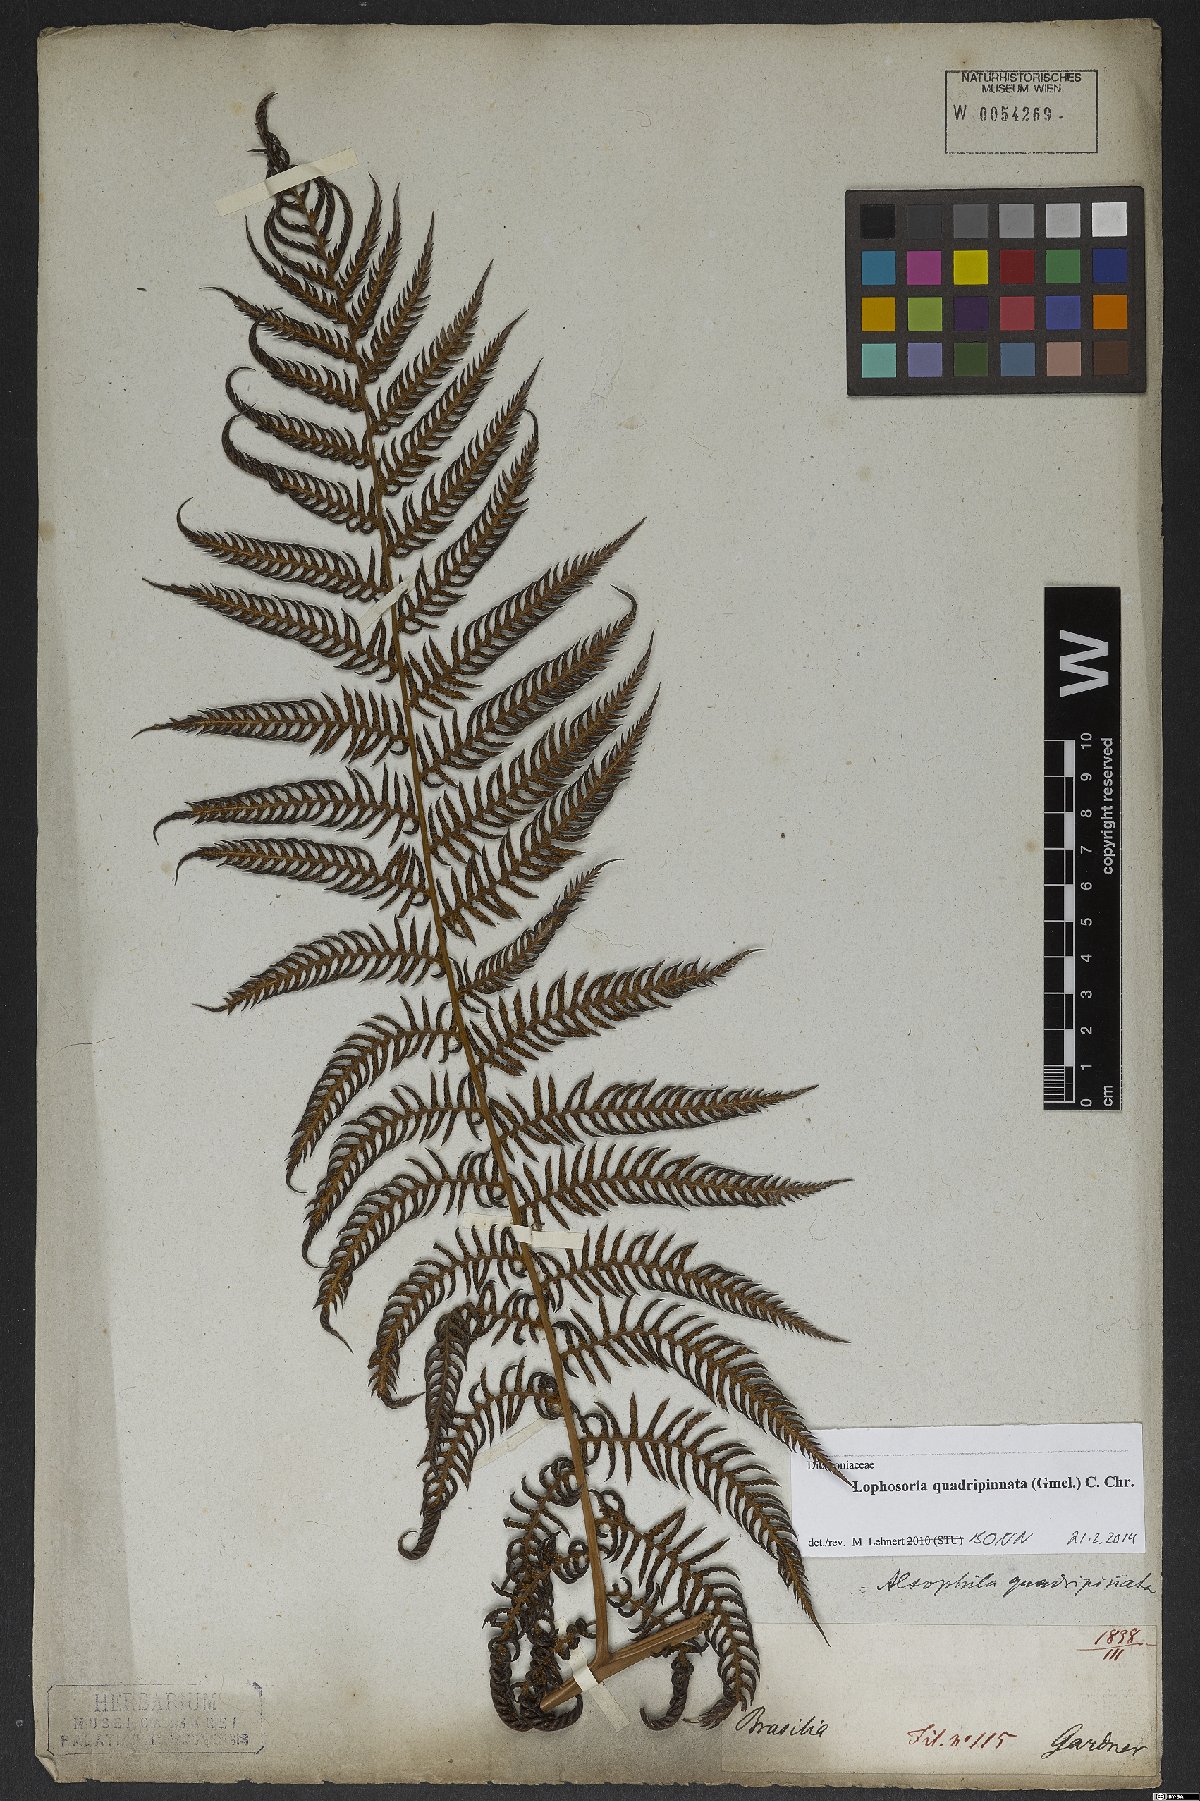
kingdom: Plantae
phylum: Tracheophyta
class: Polypodiopsida
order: Cyatheales
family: Dicksoniaceae
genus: Lophosoria
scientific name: Lophosoria quadripinnata
